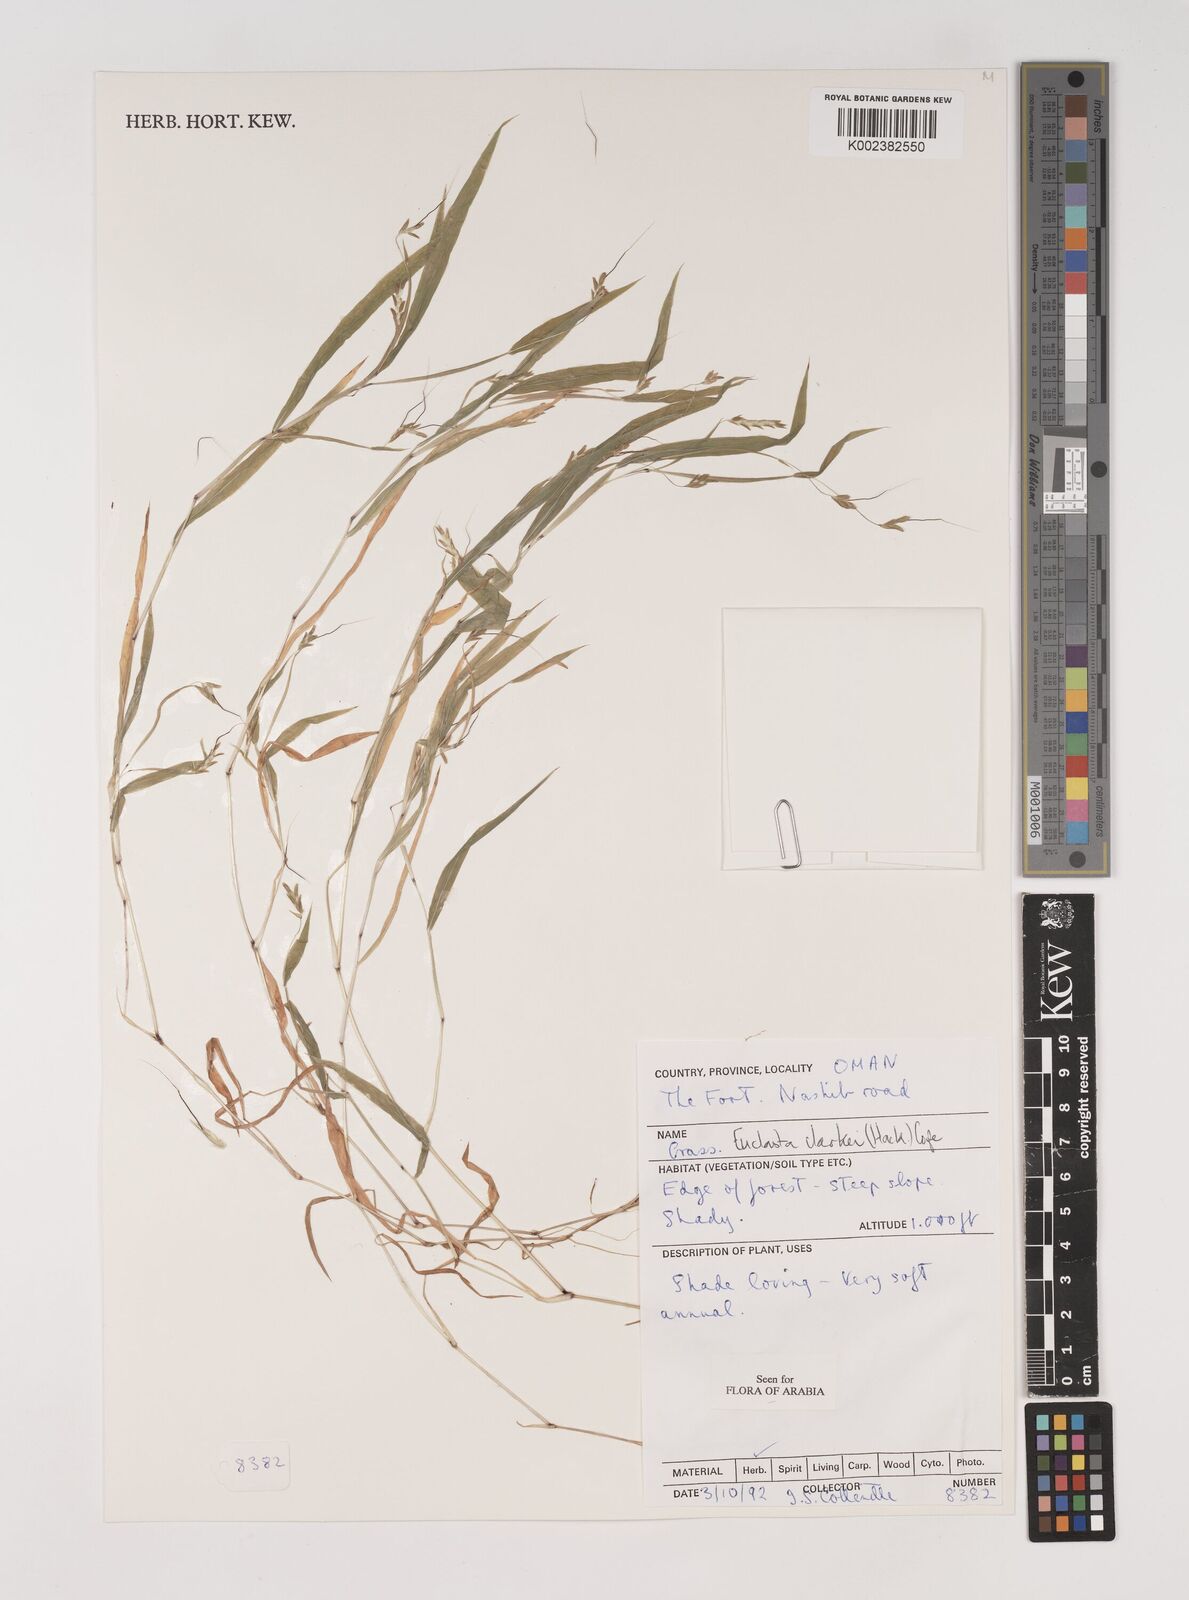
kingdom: Plantae
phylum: Tracheophyta
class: Liliopsida
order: Poales
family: Poaceae
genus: Euclasta
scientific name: Euclasta clarkei
